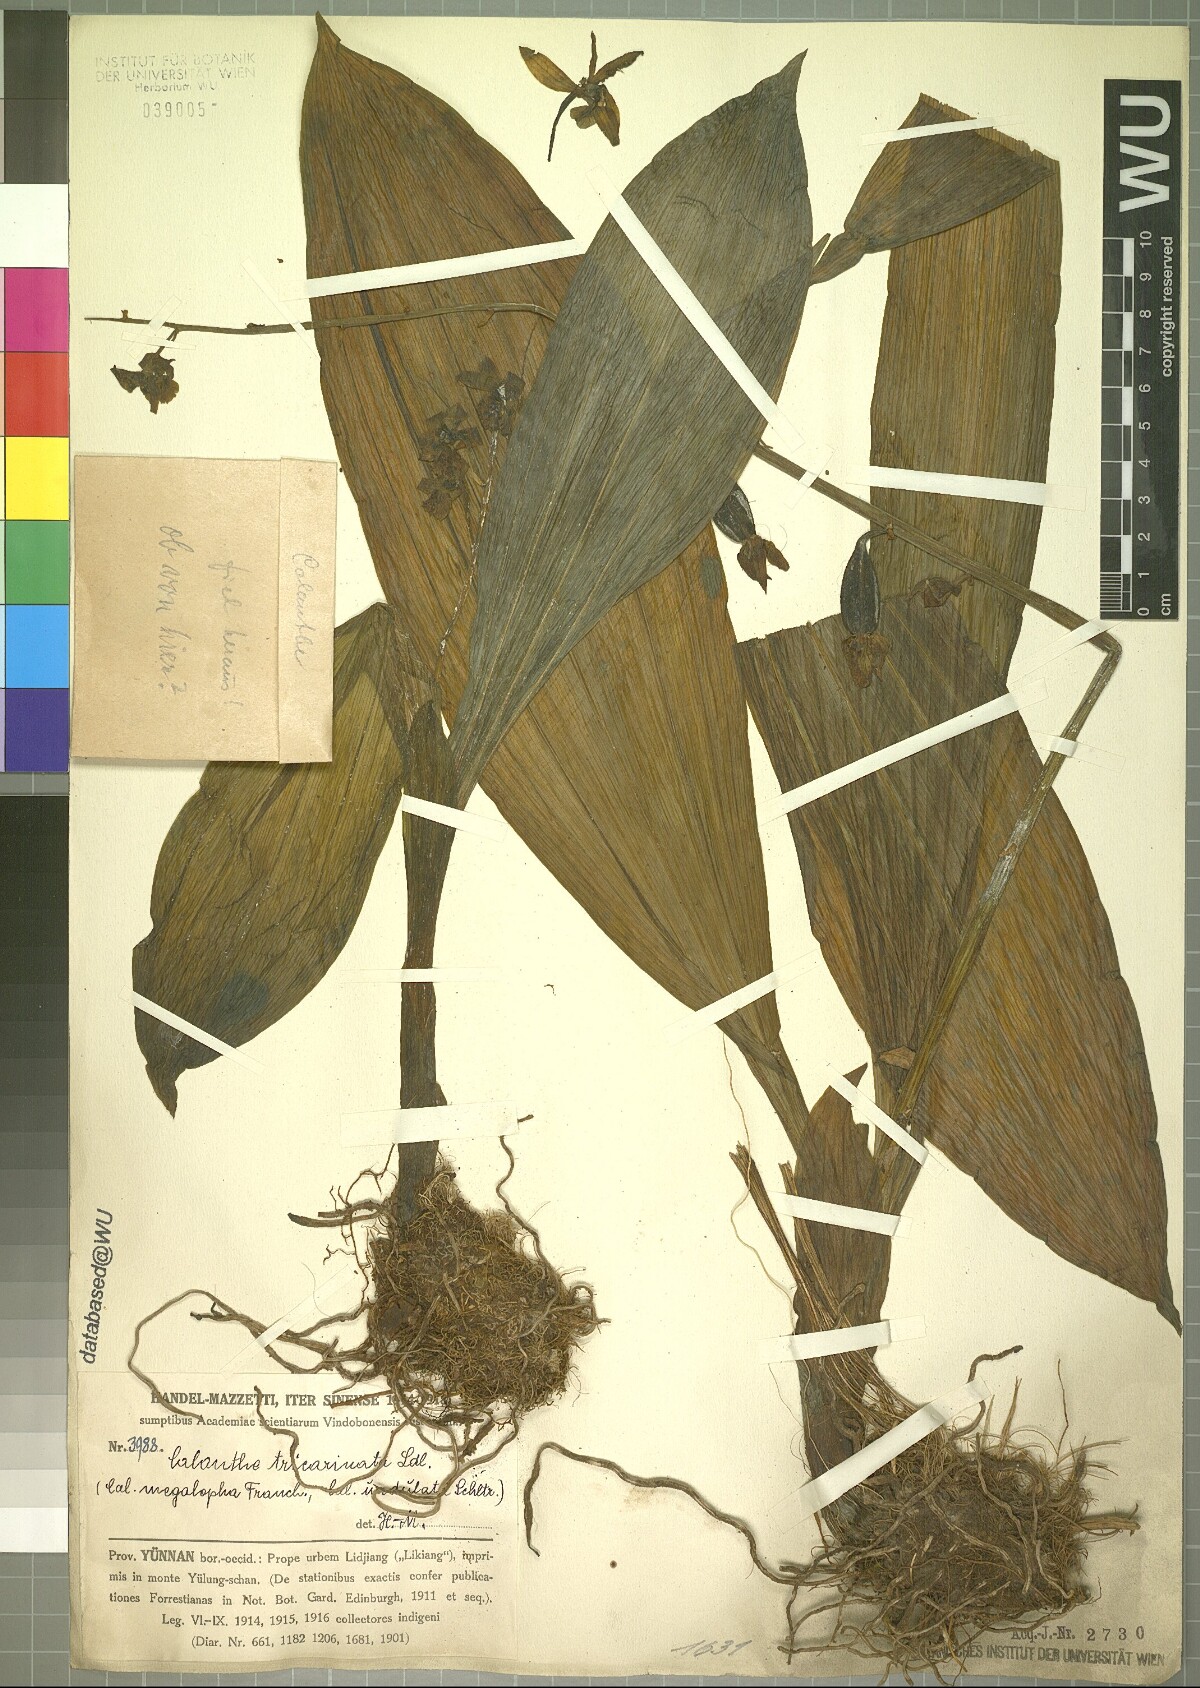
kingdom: Plantae
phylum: Tracheophyta
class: Liliopsida
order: Asparagales
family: Orchidaceae
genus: Calanthe
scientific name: Calanthe tricarinata
